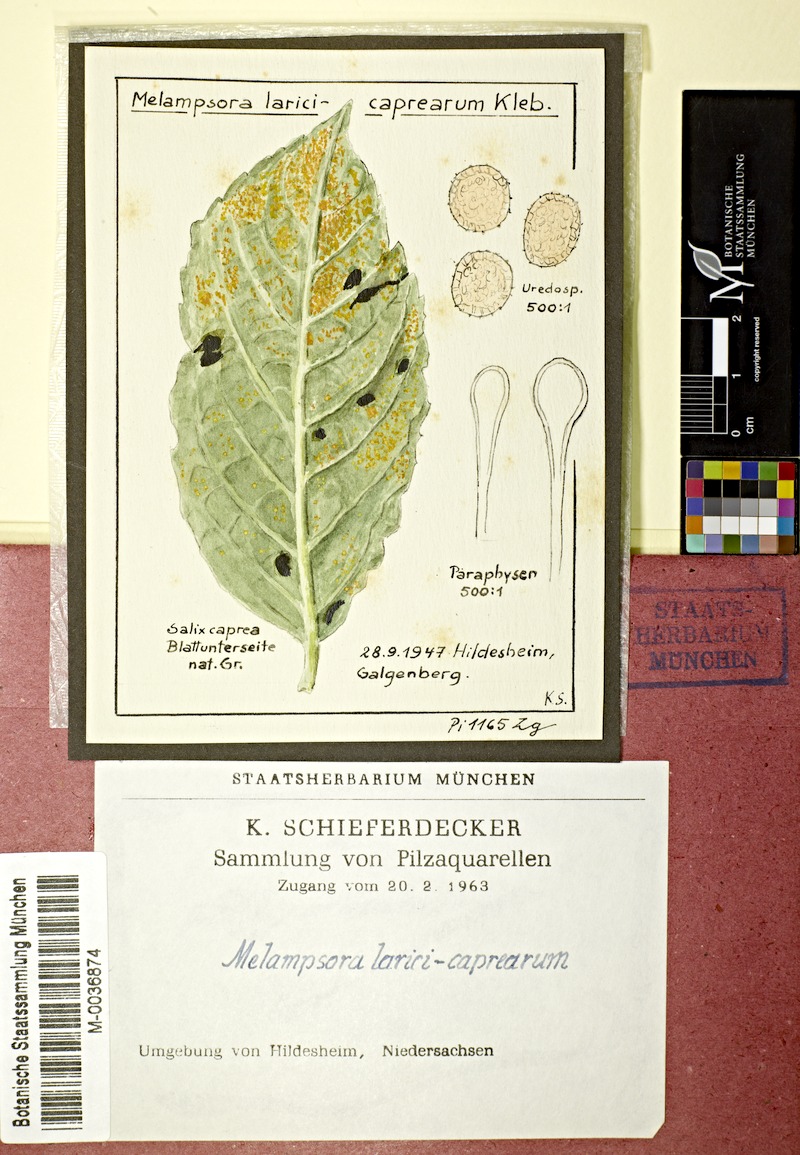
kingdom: Plantae
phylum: Tracheophyta
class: Magnoliopsida
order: Malpighiales
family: Salicaceae
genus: Salix
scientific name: Salix caprea
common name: Goat willow
